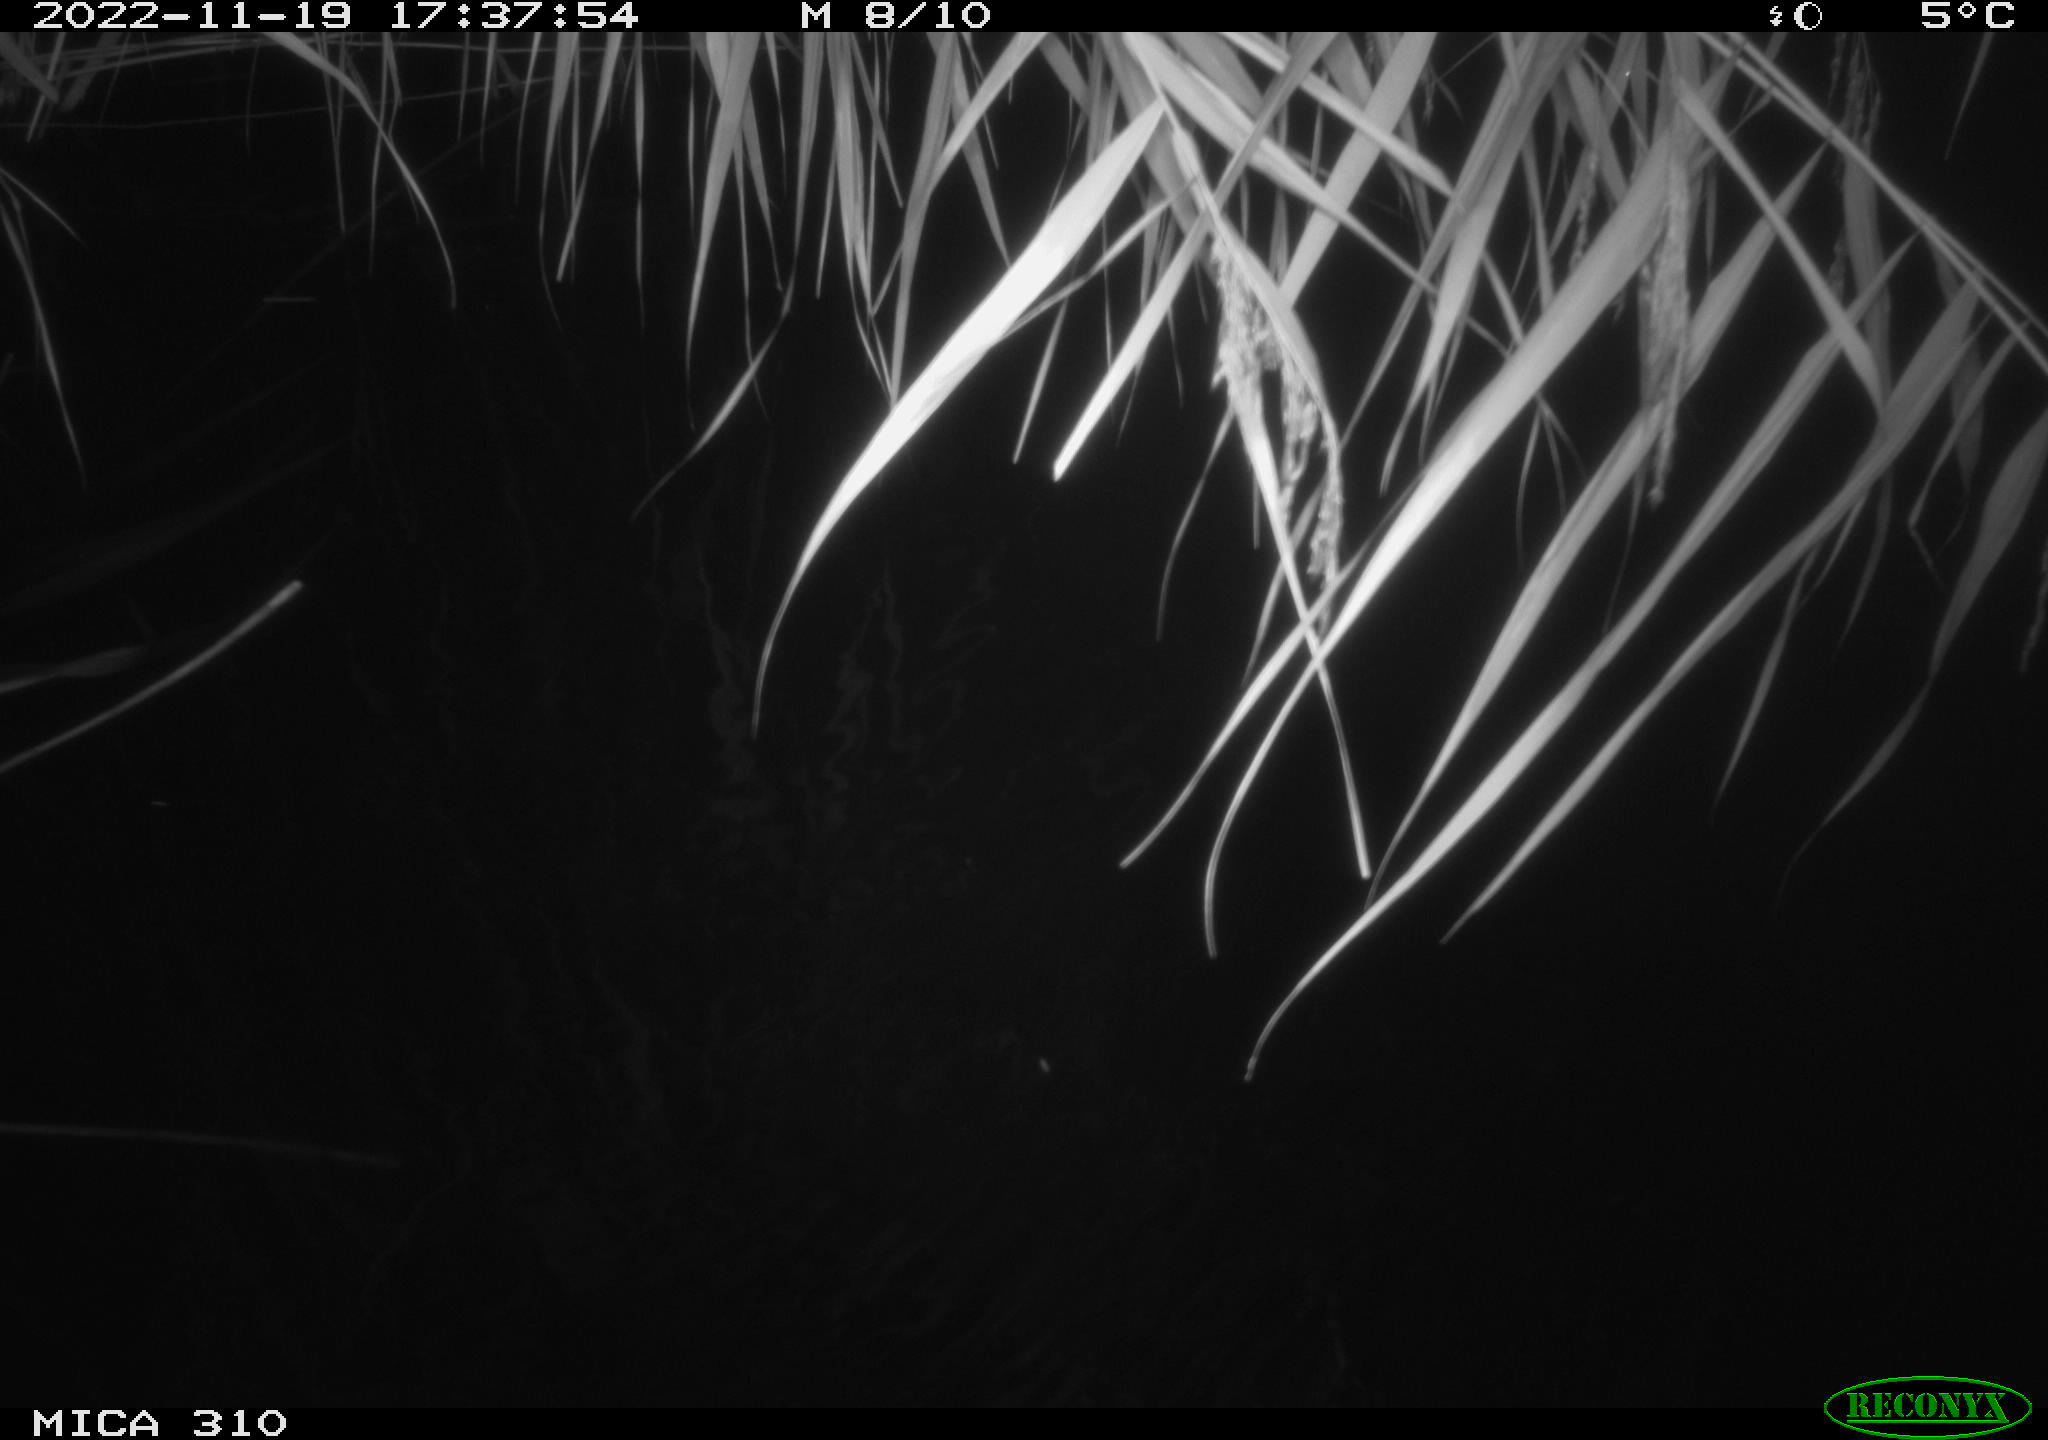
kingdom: Animalia
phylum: Chordata
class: Mammalia
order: Rodentia
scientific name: Rodentia
